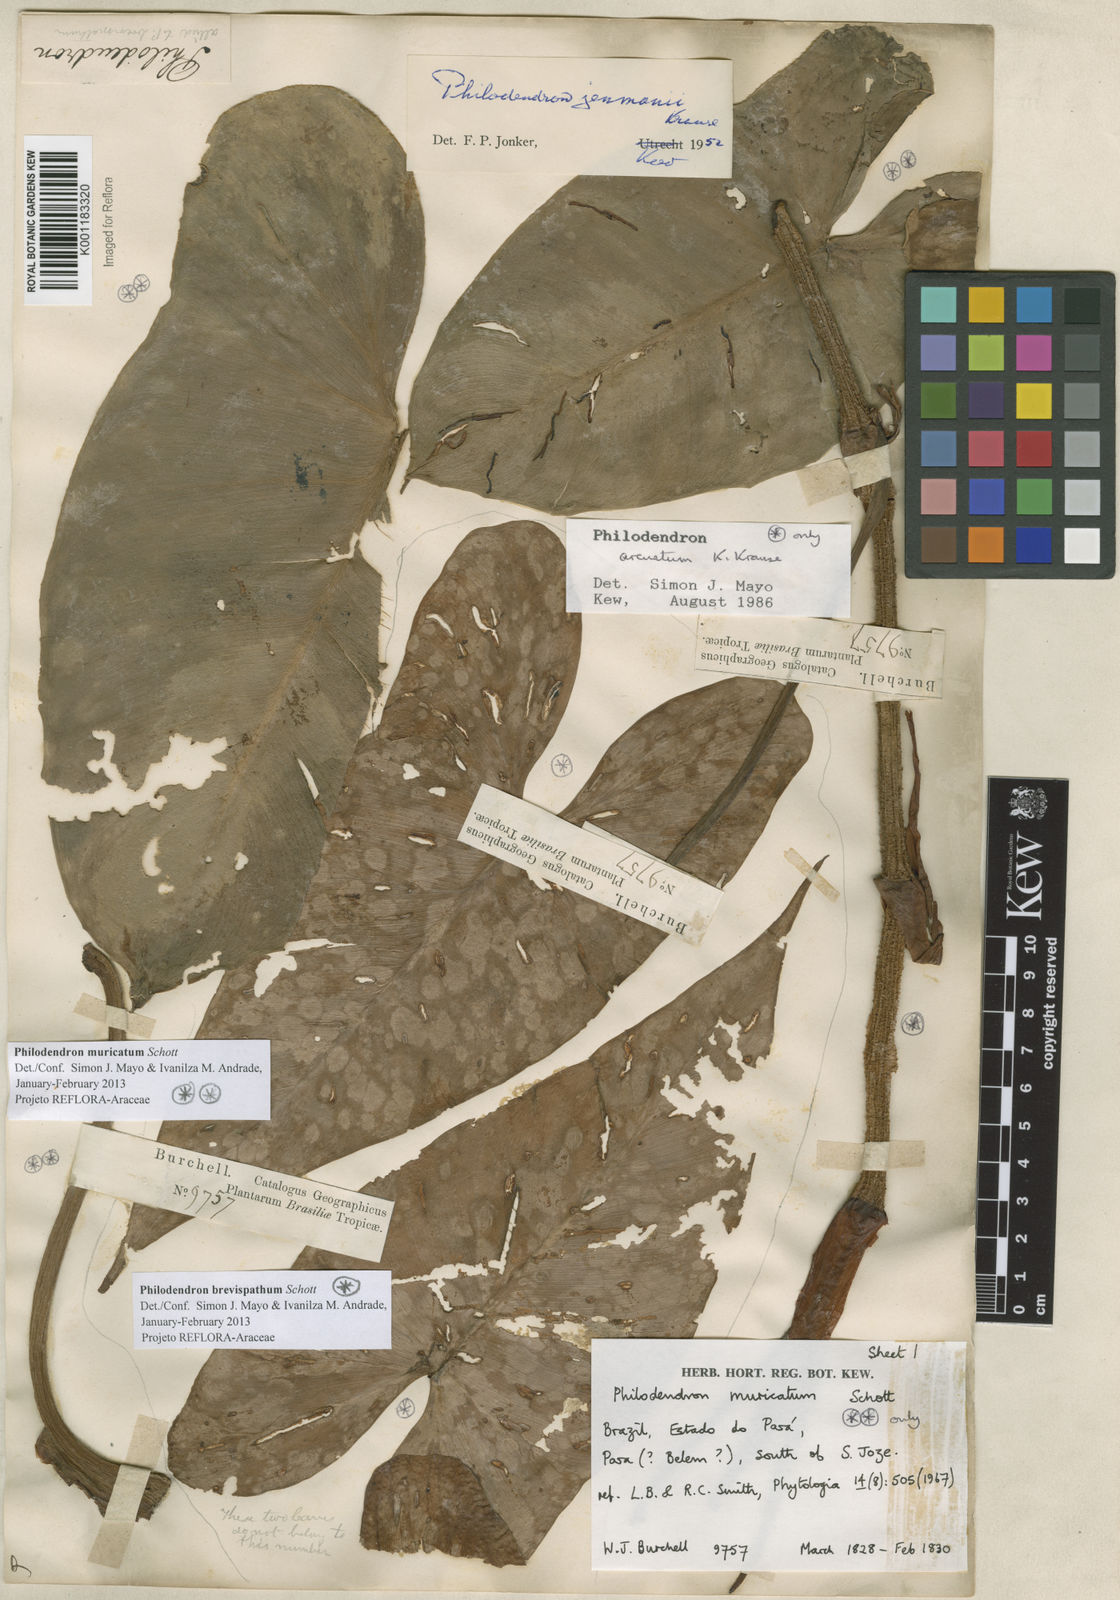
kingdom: Plantae
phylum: Tracheophyta
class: Liliopsida
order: Alismatales
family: Araceae
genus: Philodendron
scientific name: Philodendron muricatum
